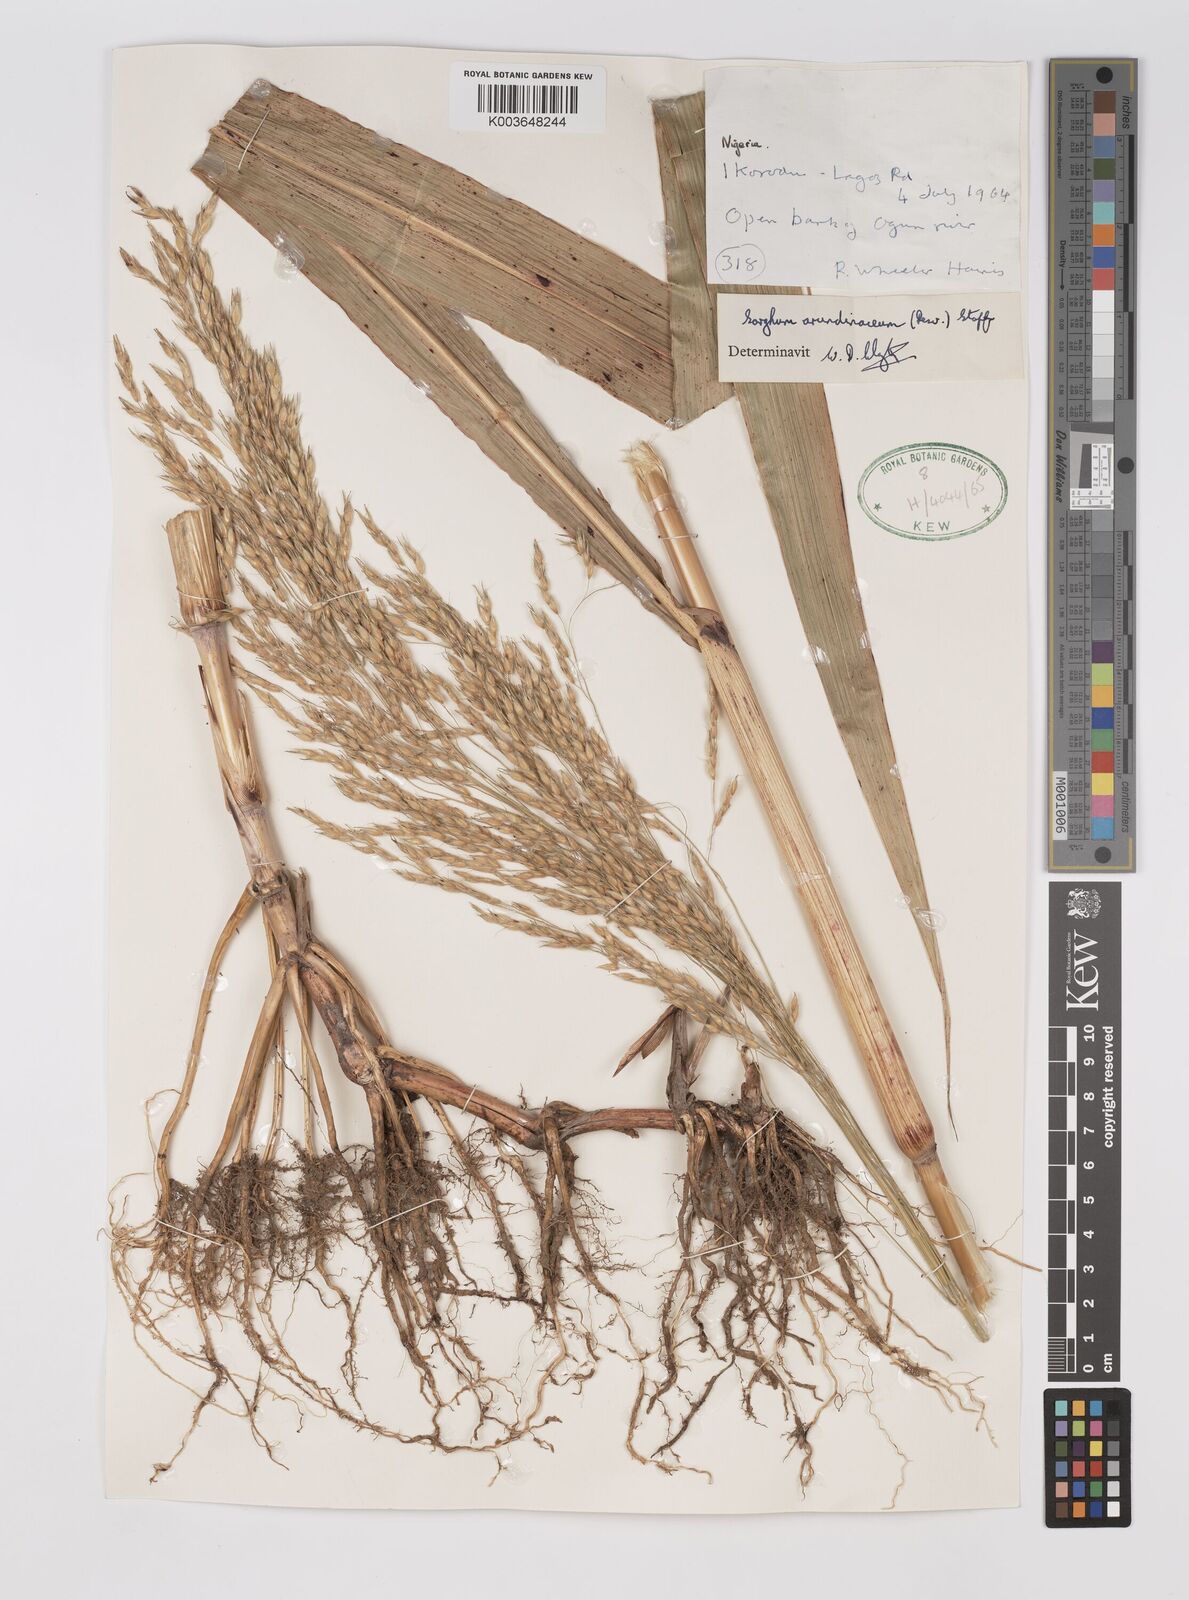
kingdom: Plantae
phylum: Tracheophyta
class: Liliopsida
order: Poales
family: Poaceae
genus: Sorghum
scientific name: Sorghum arundinaceum
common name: Sorghum
